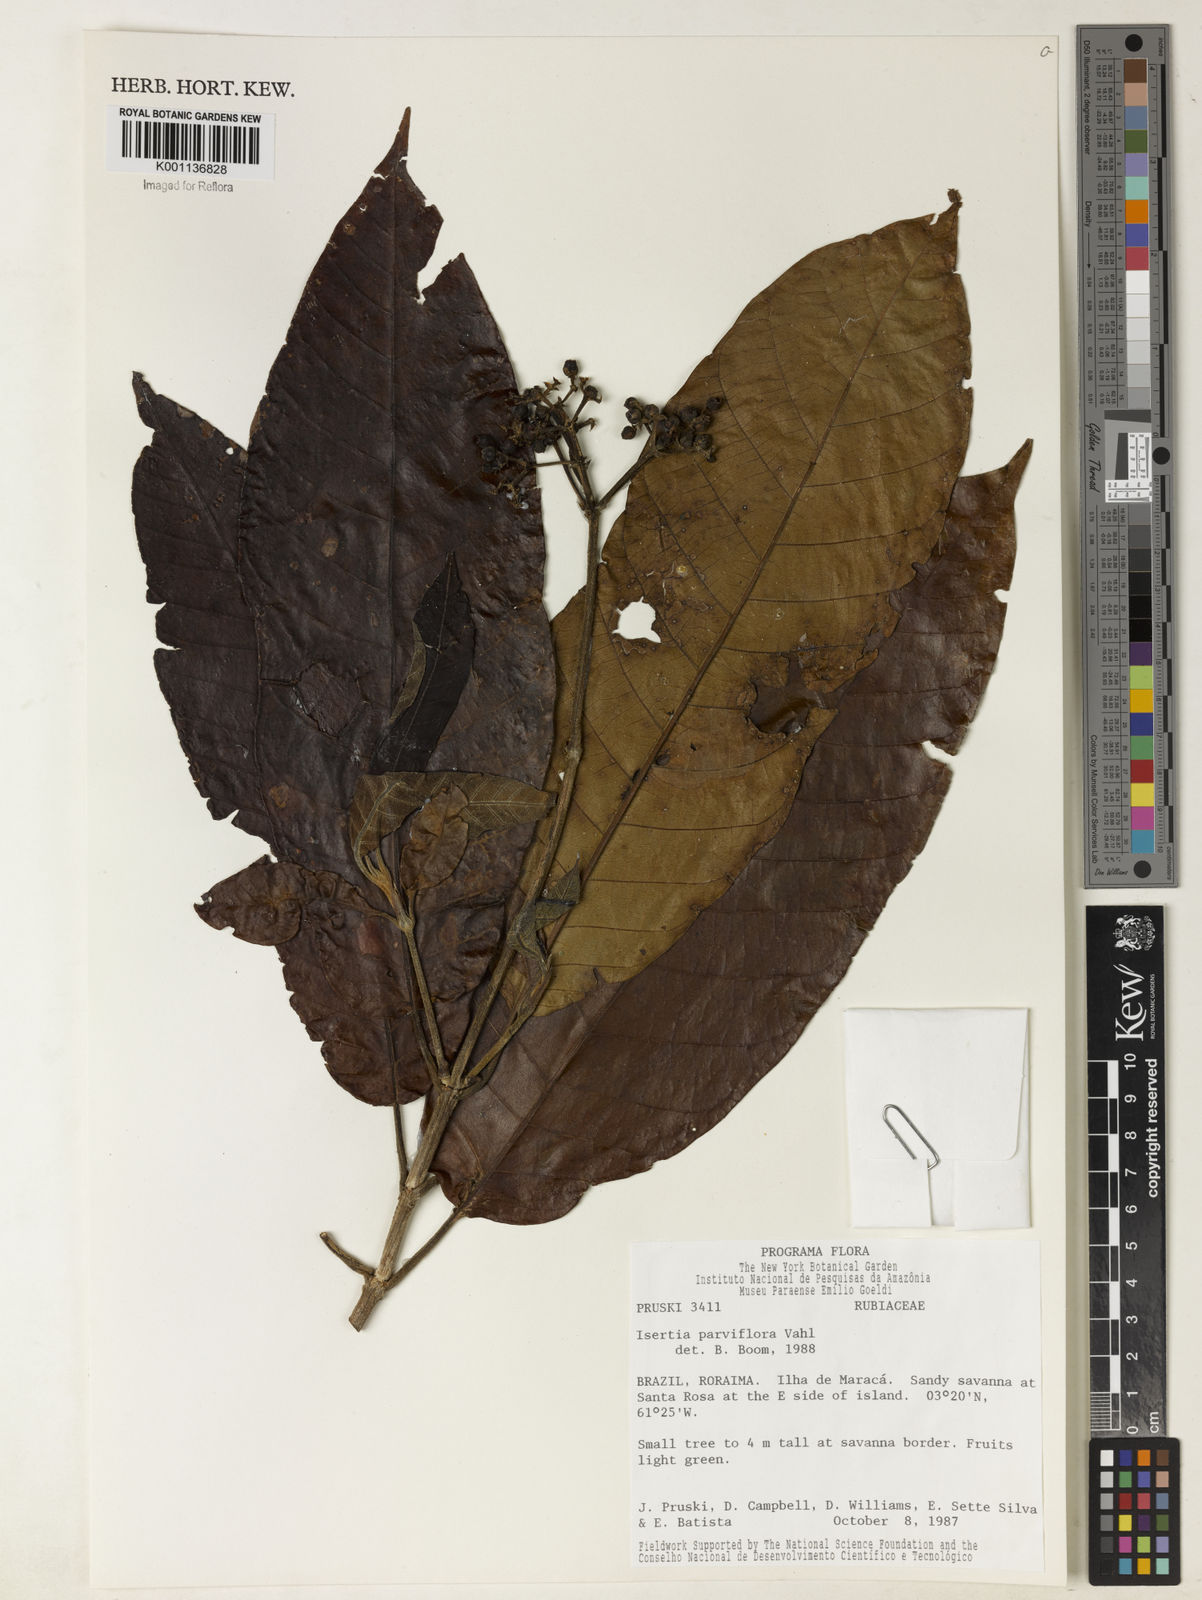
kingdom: Plantae
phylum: Tracheophyta
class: Magnoliopsida
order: Gentianales
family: Rubiaceae
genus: Isertia
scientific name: Isertia parviflora
